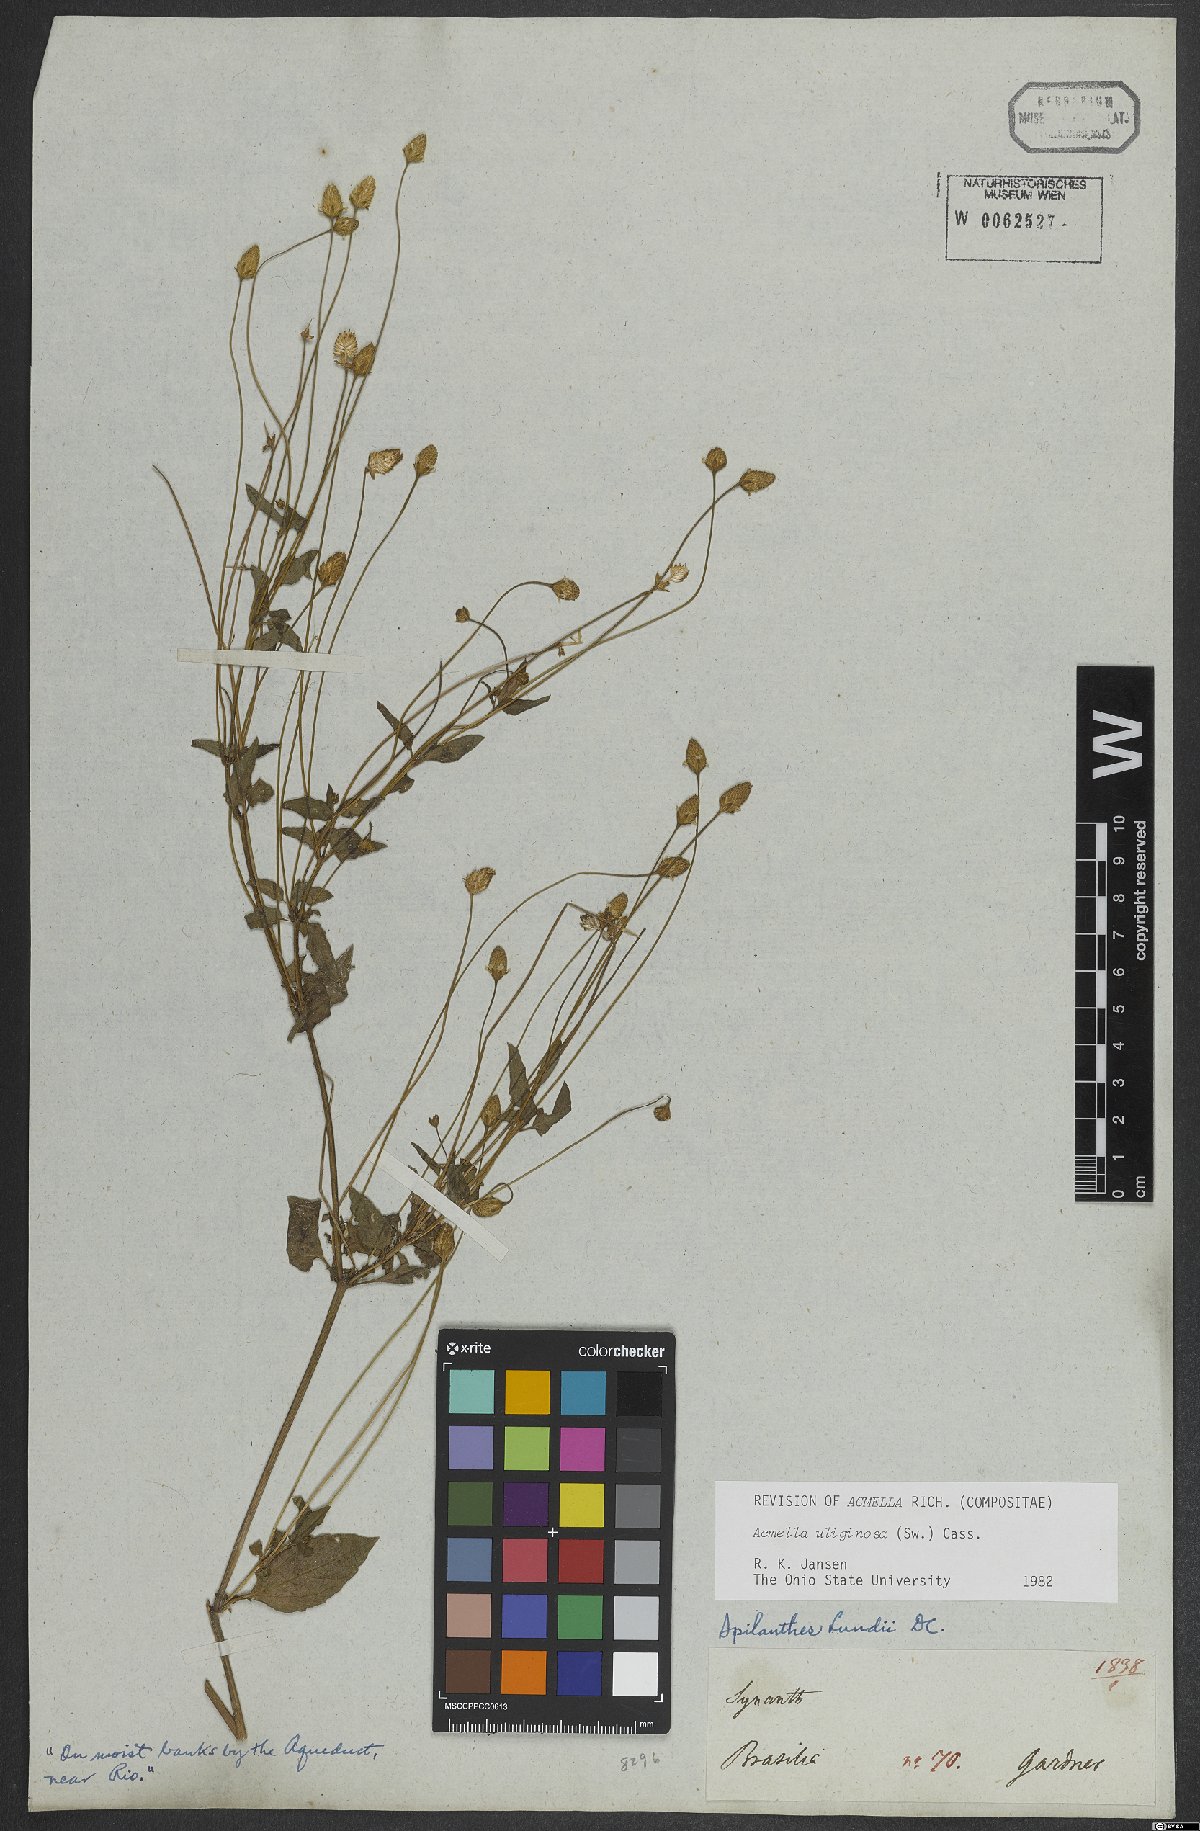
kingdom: Plantae
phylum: Tracheophyta
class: Magnoliopsida
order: Asterales
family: Asteraceae
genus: Acmella
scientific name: Acmella uliginosa
